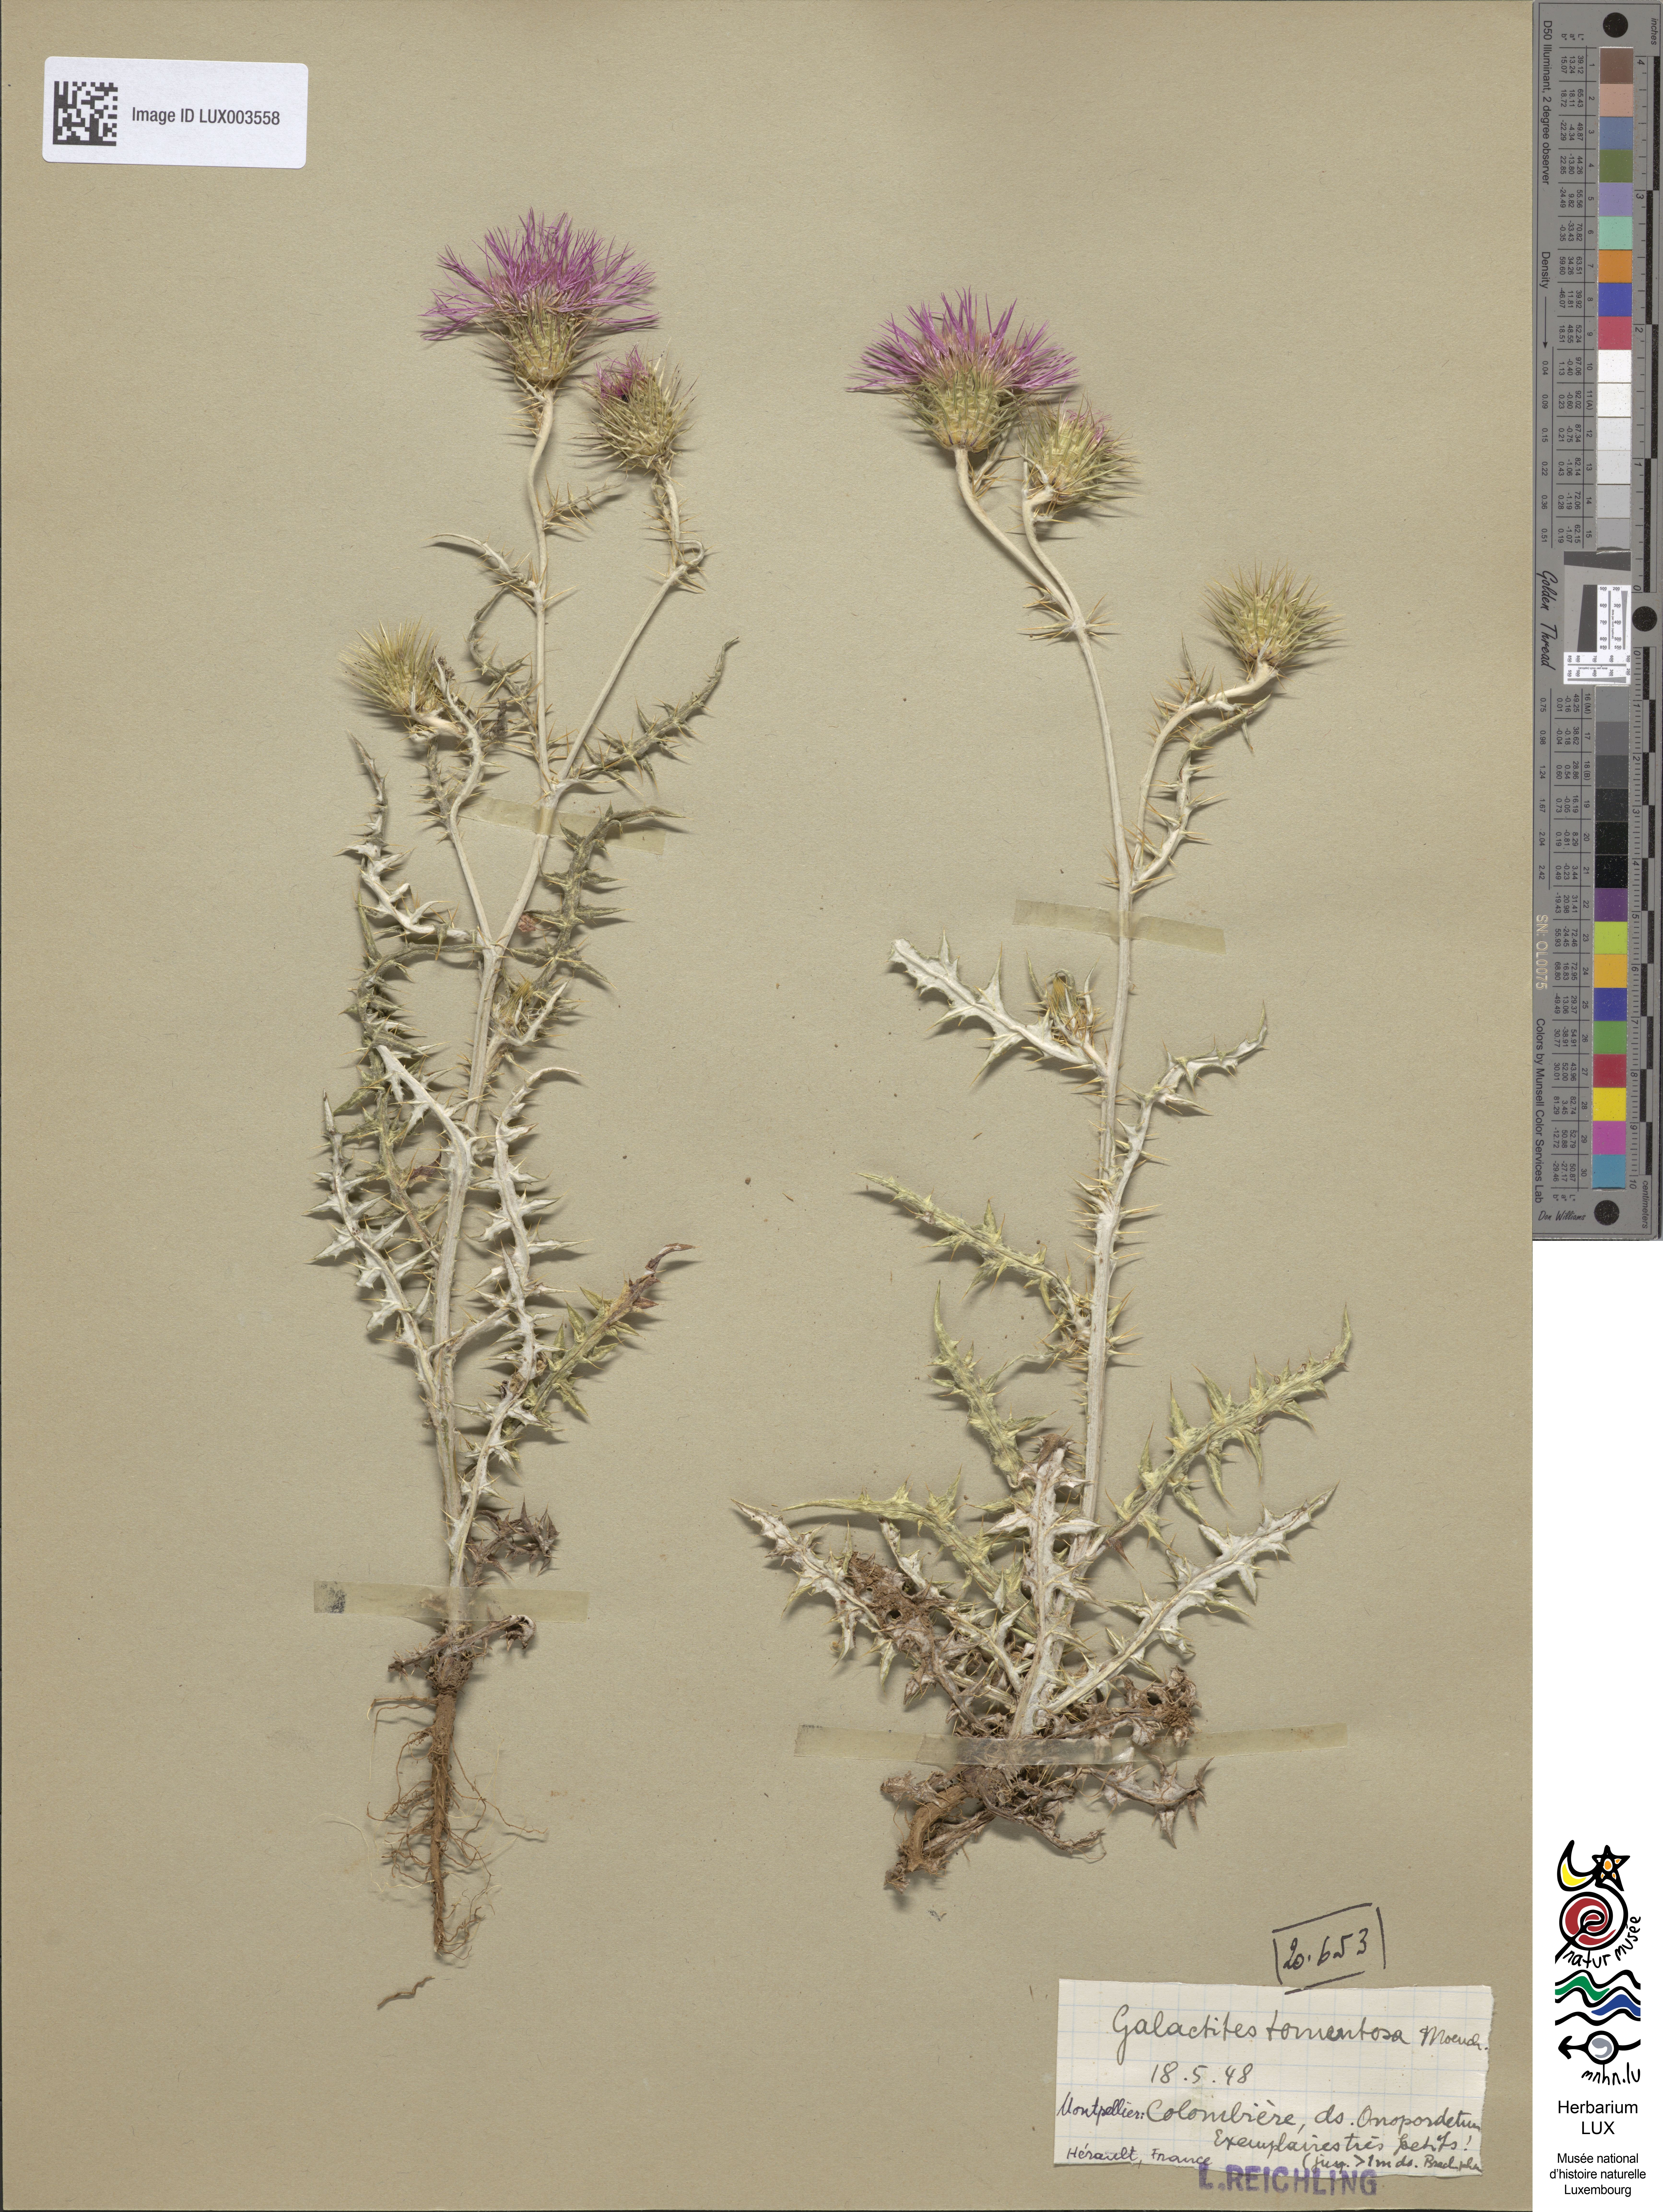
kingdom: Plantae
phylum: Tracheophyta
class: Magnoliopsida
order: Asterales
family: Asteraceae
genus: Galactites
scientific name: Galactites tomentosa
